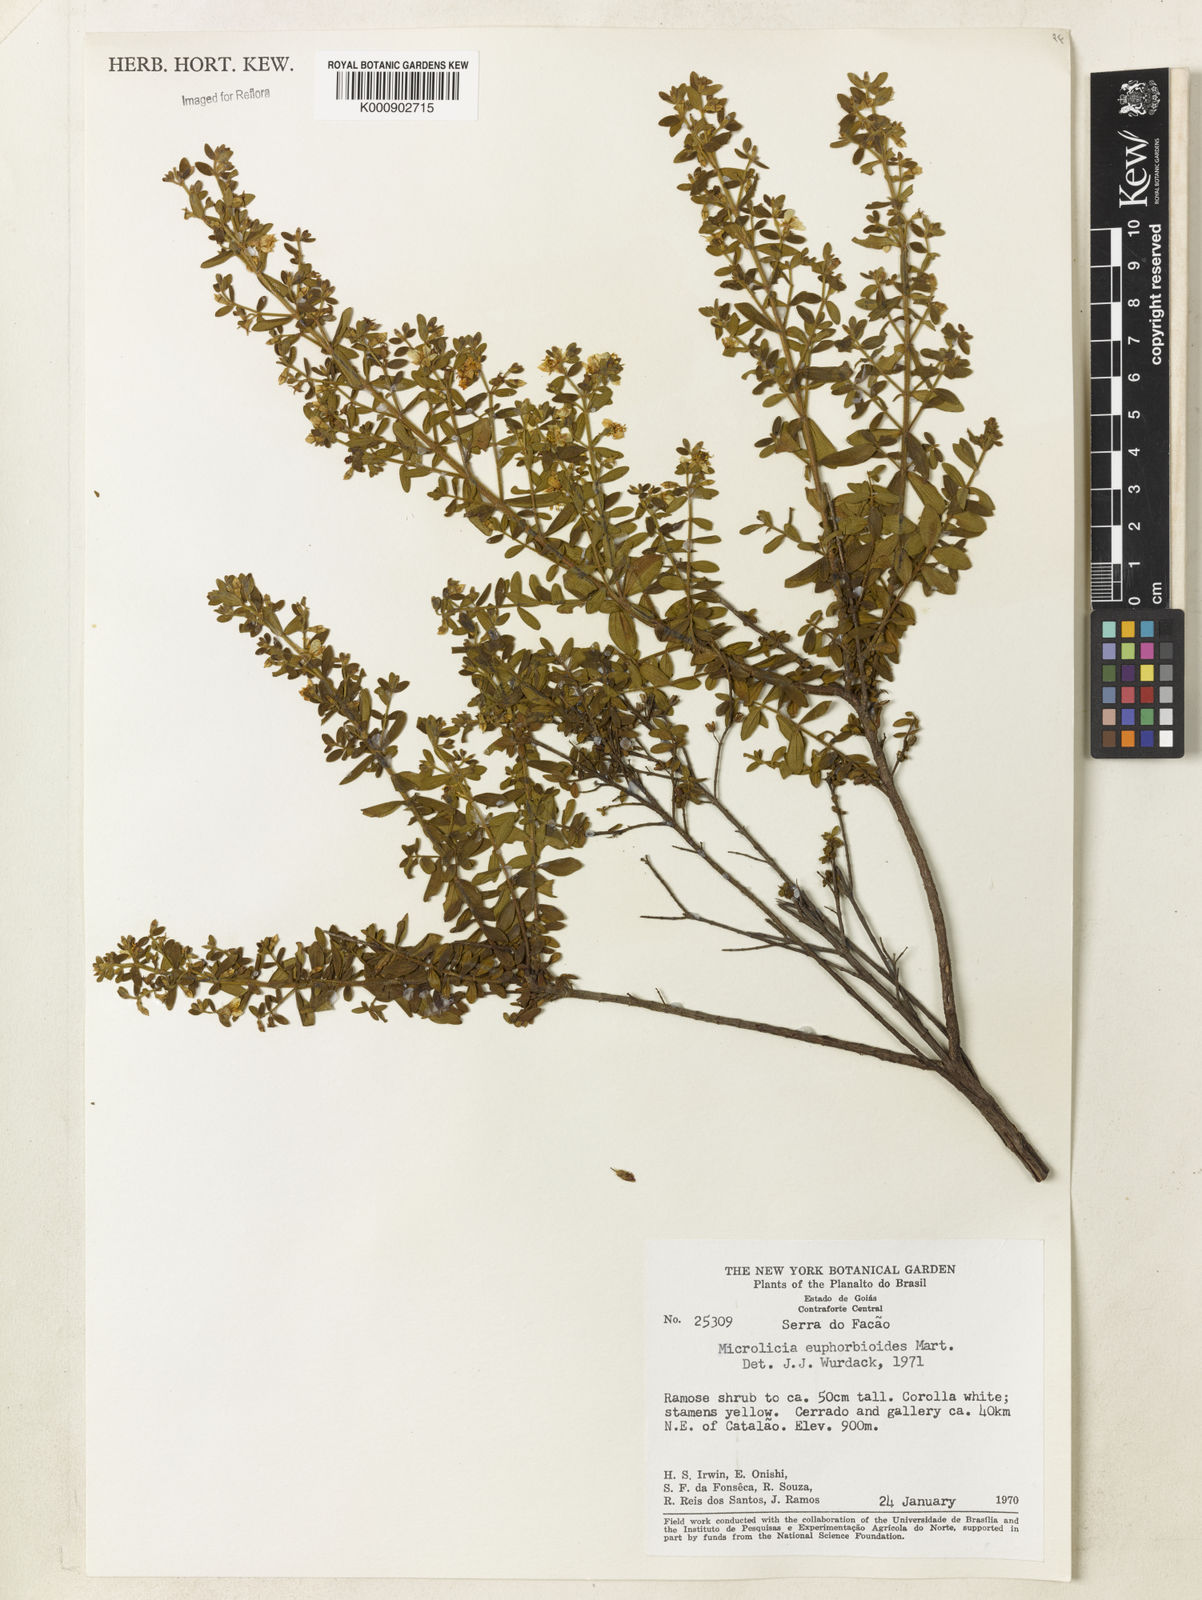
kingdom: Plantae
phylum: Tracheophyta
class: Magnoliopsida
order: Myrtales
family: Melastomataceae
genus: Microlicia
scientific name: Microlicia euphorbioides
